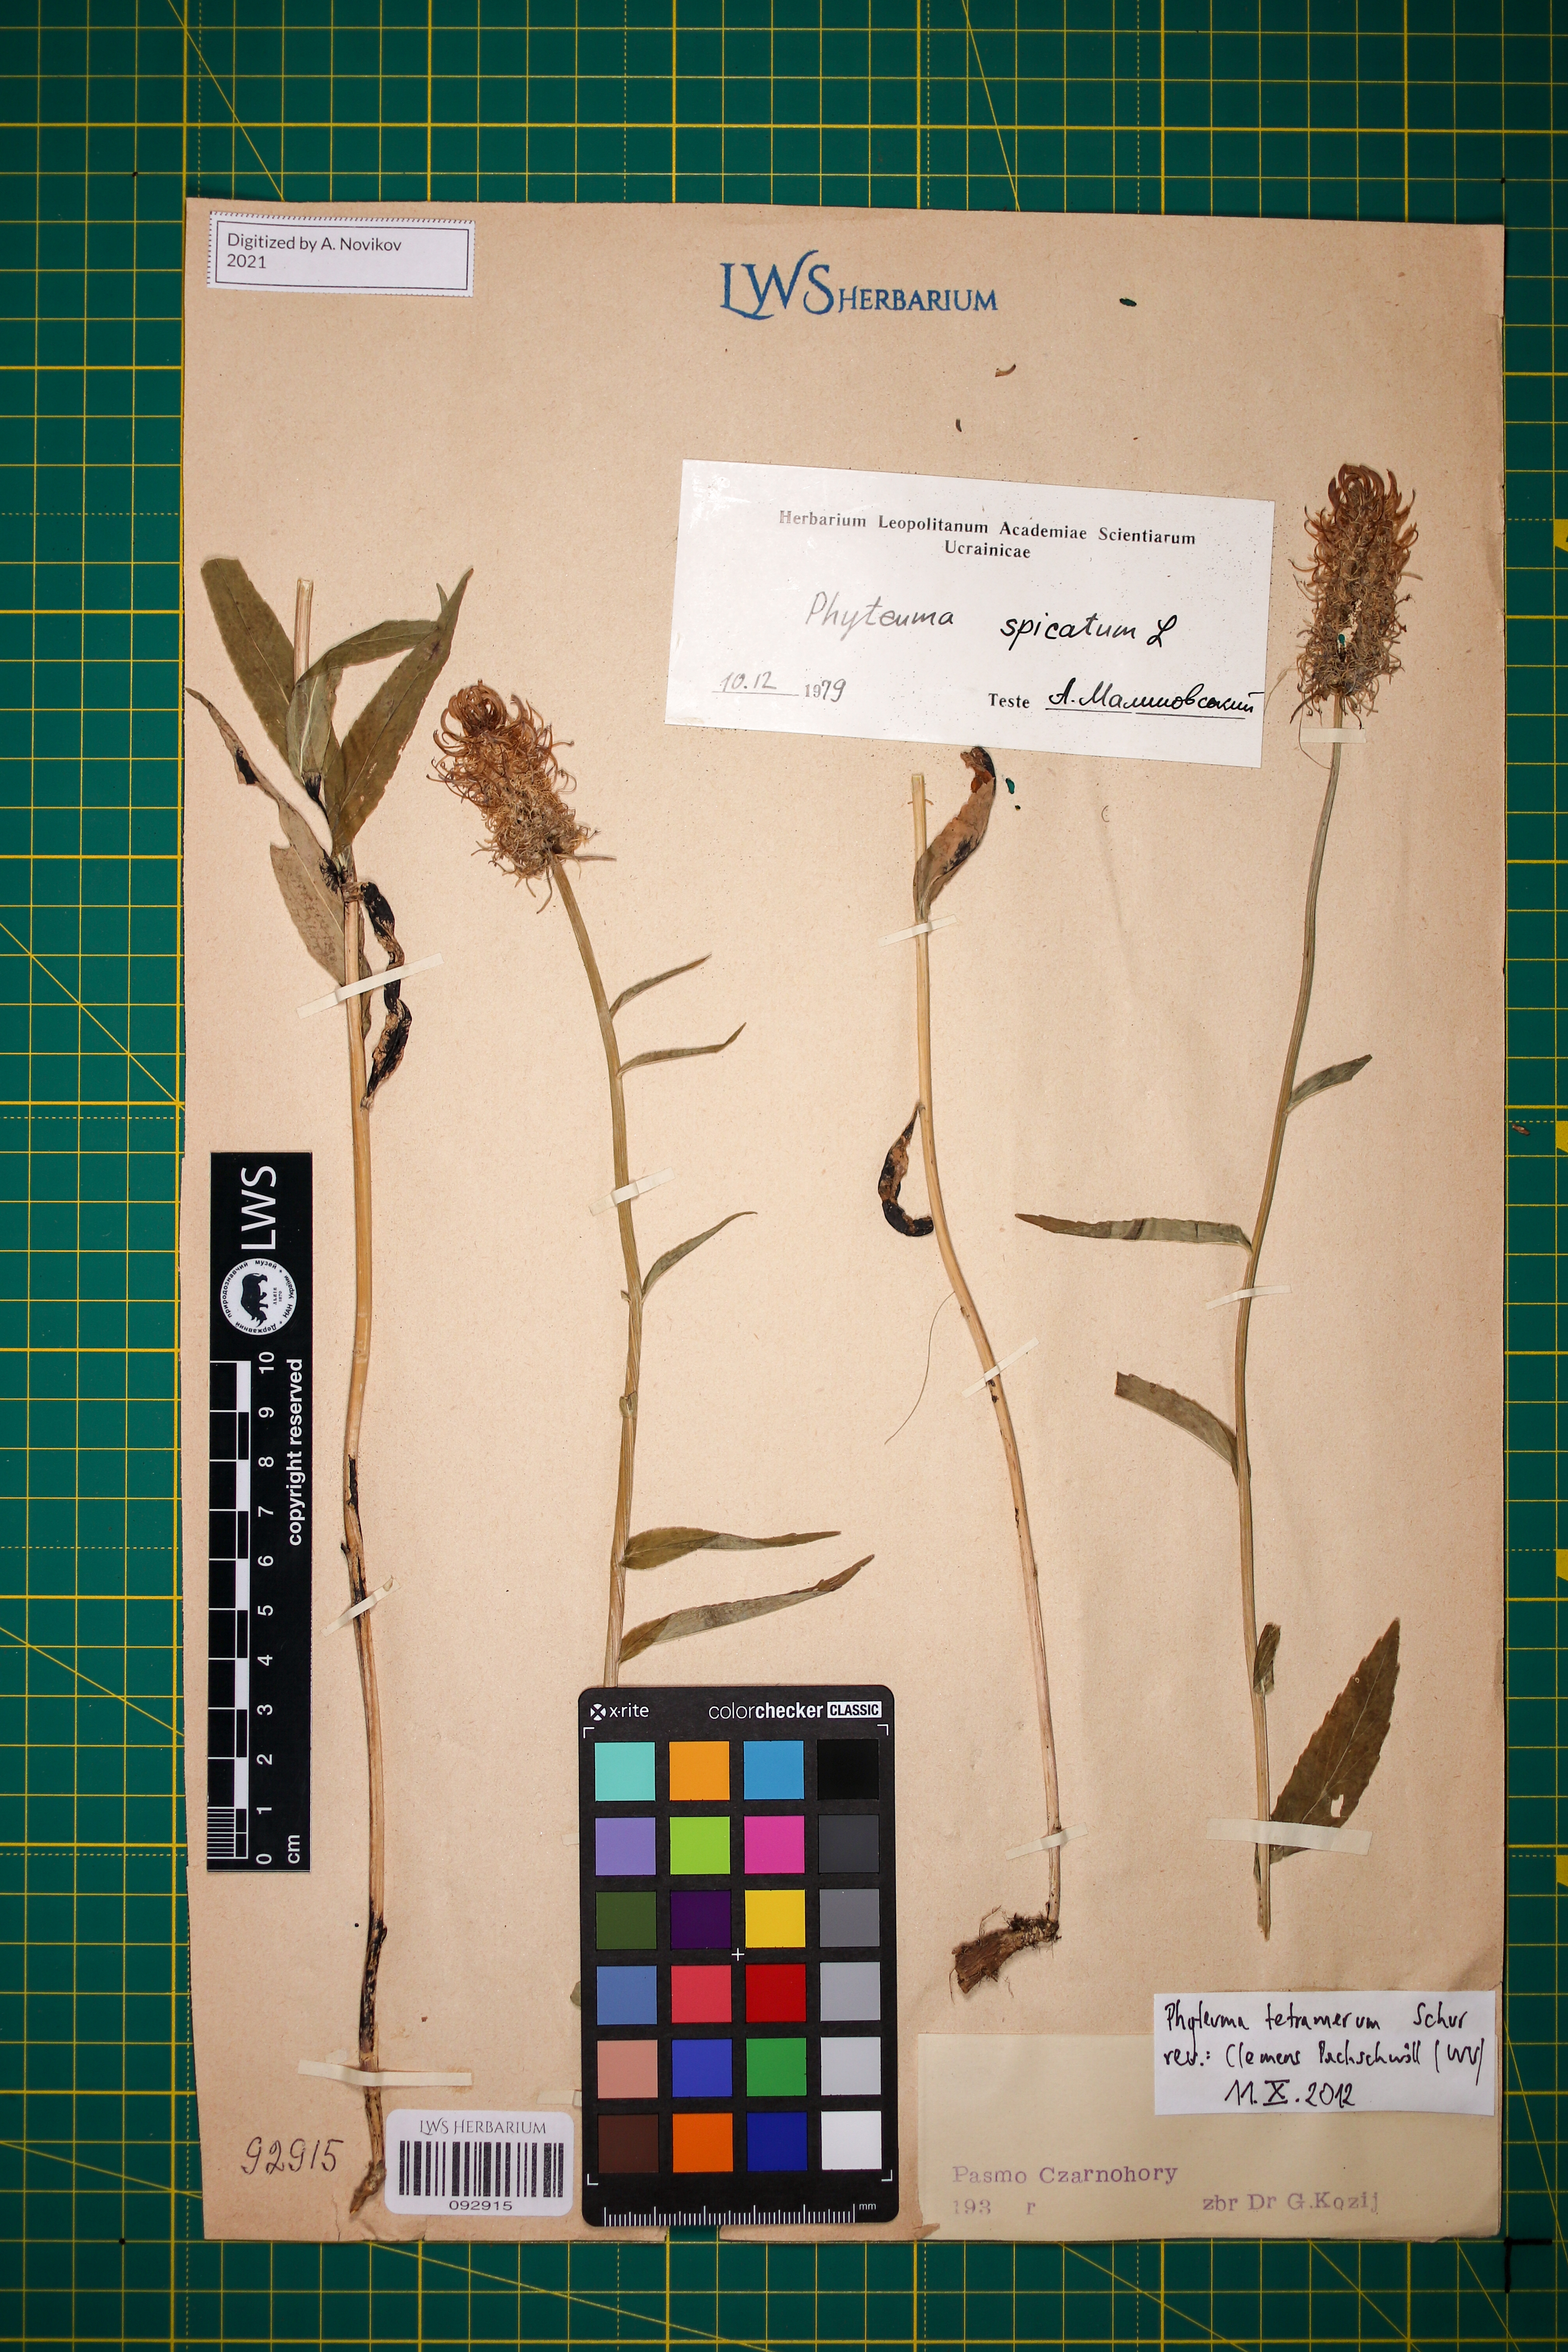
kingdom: Plantae
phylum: Tracheophyta
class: Magnoliopsida
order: Asterales
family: Campanulaceae
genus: Phyteuma
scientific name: Phyteuma tetramerum
